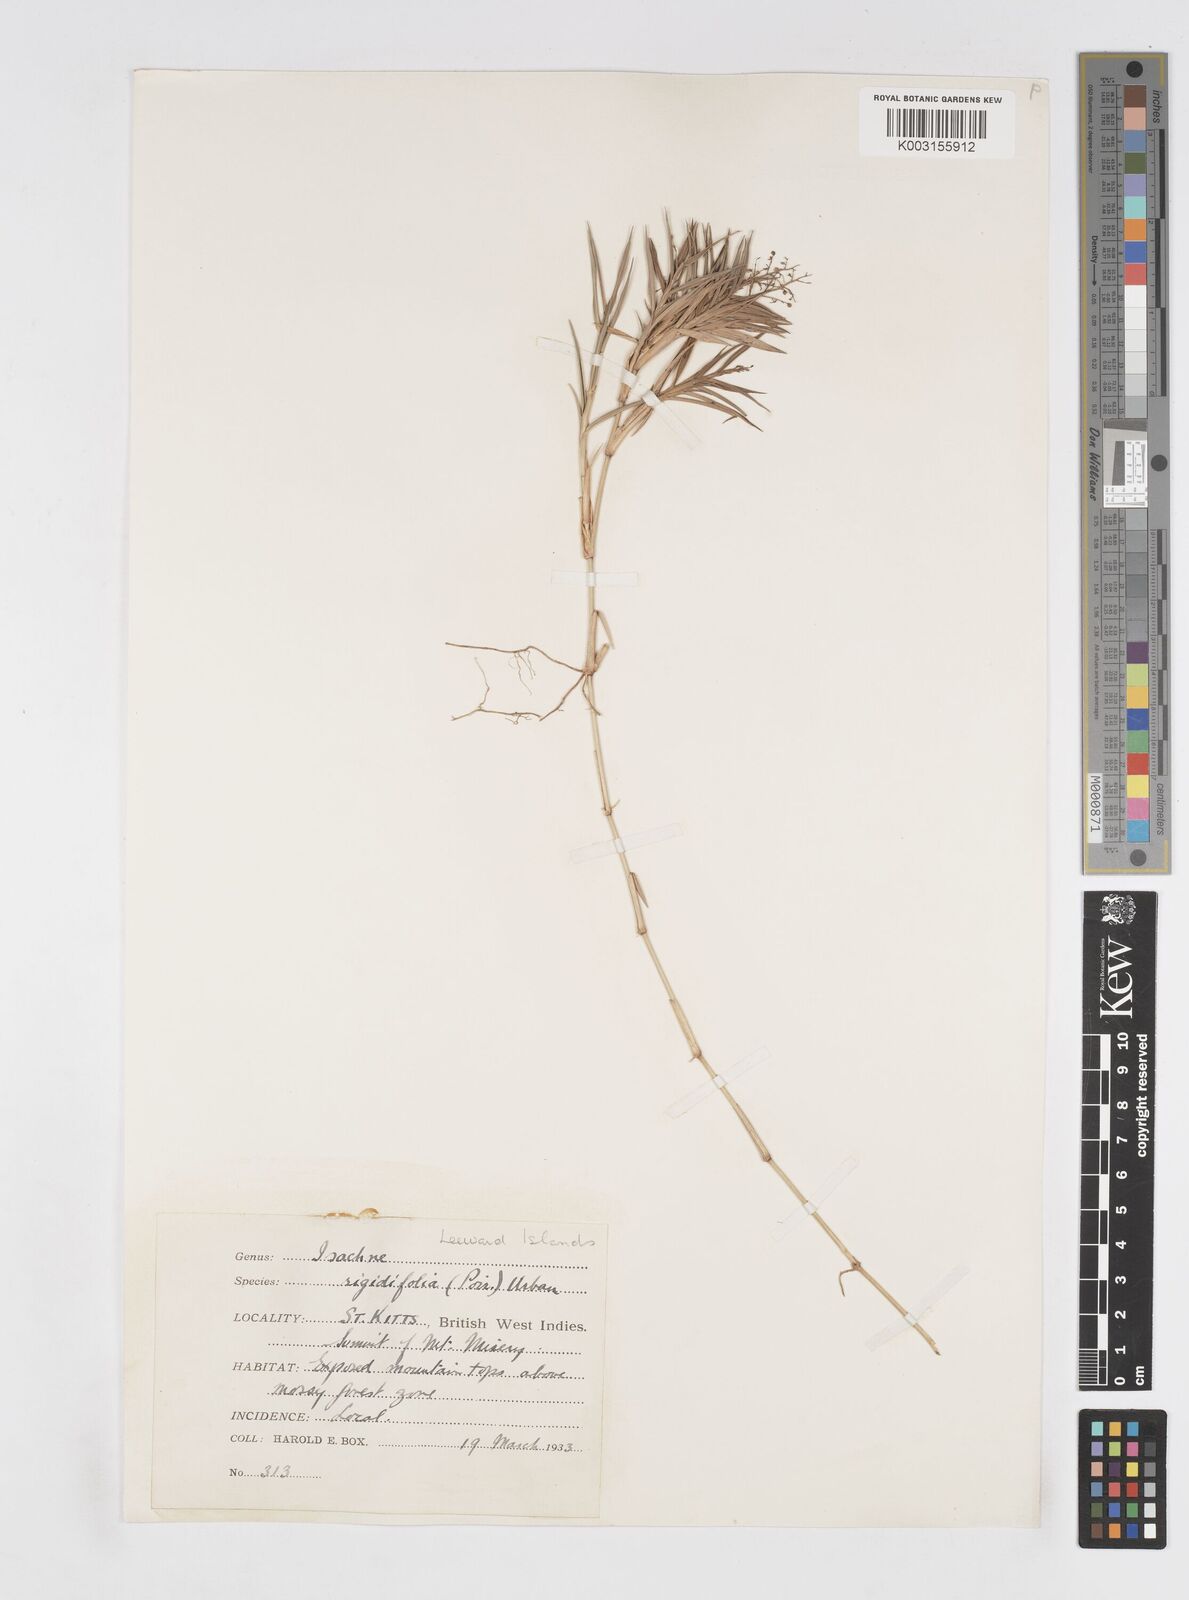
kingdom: Plantae
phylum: Tracheophyta
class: Liliopsida
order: Poales
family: Poaceae
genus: Isachne
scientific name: Isachne rigidifolia
